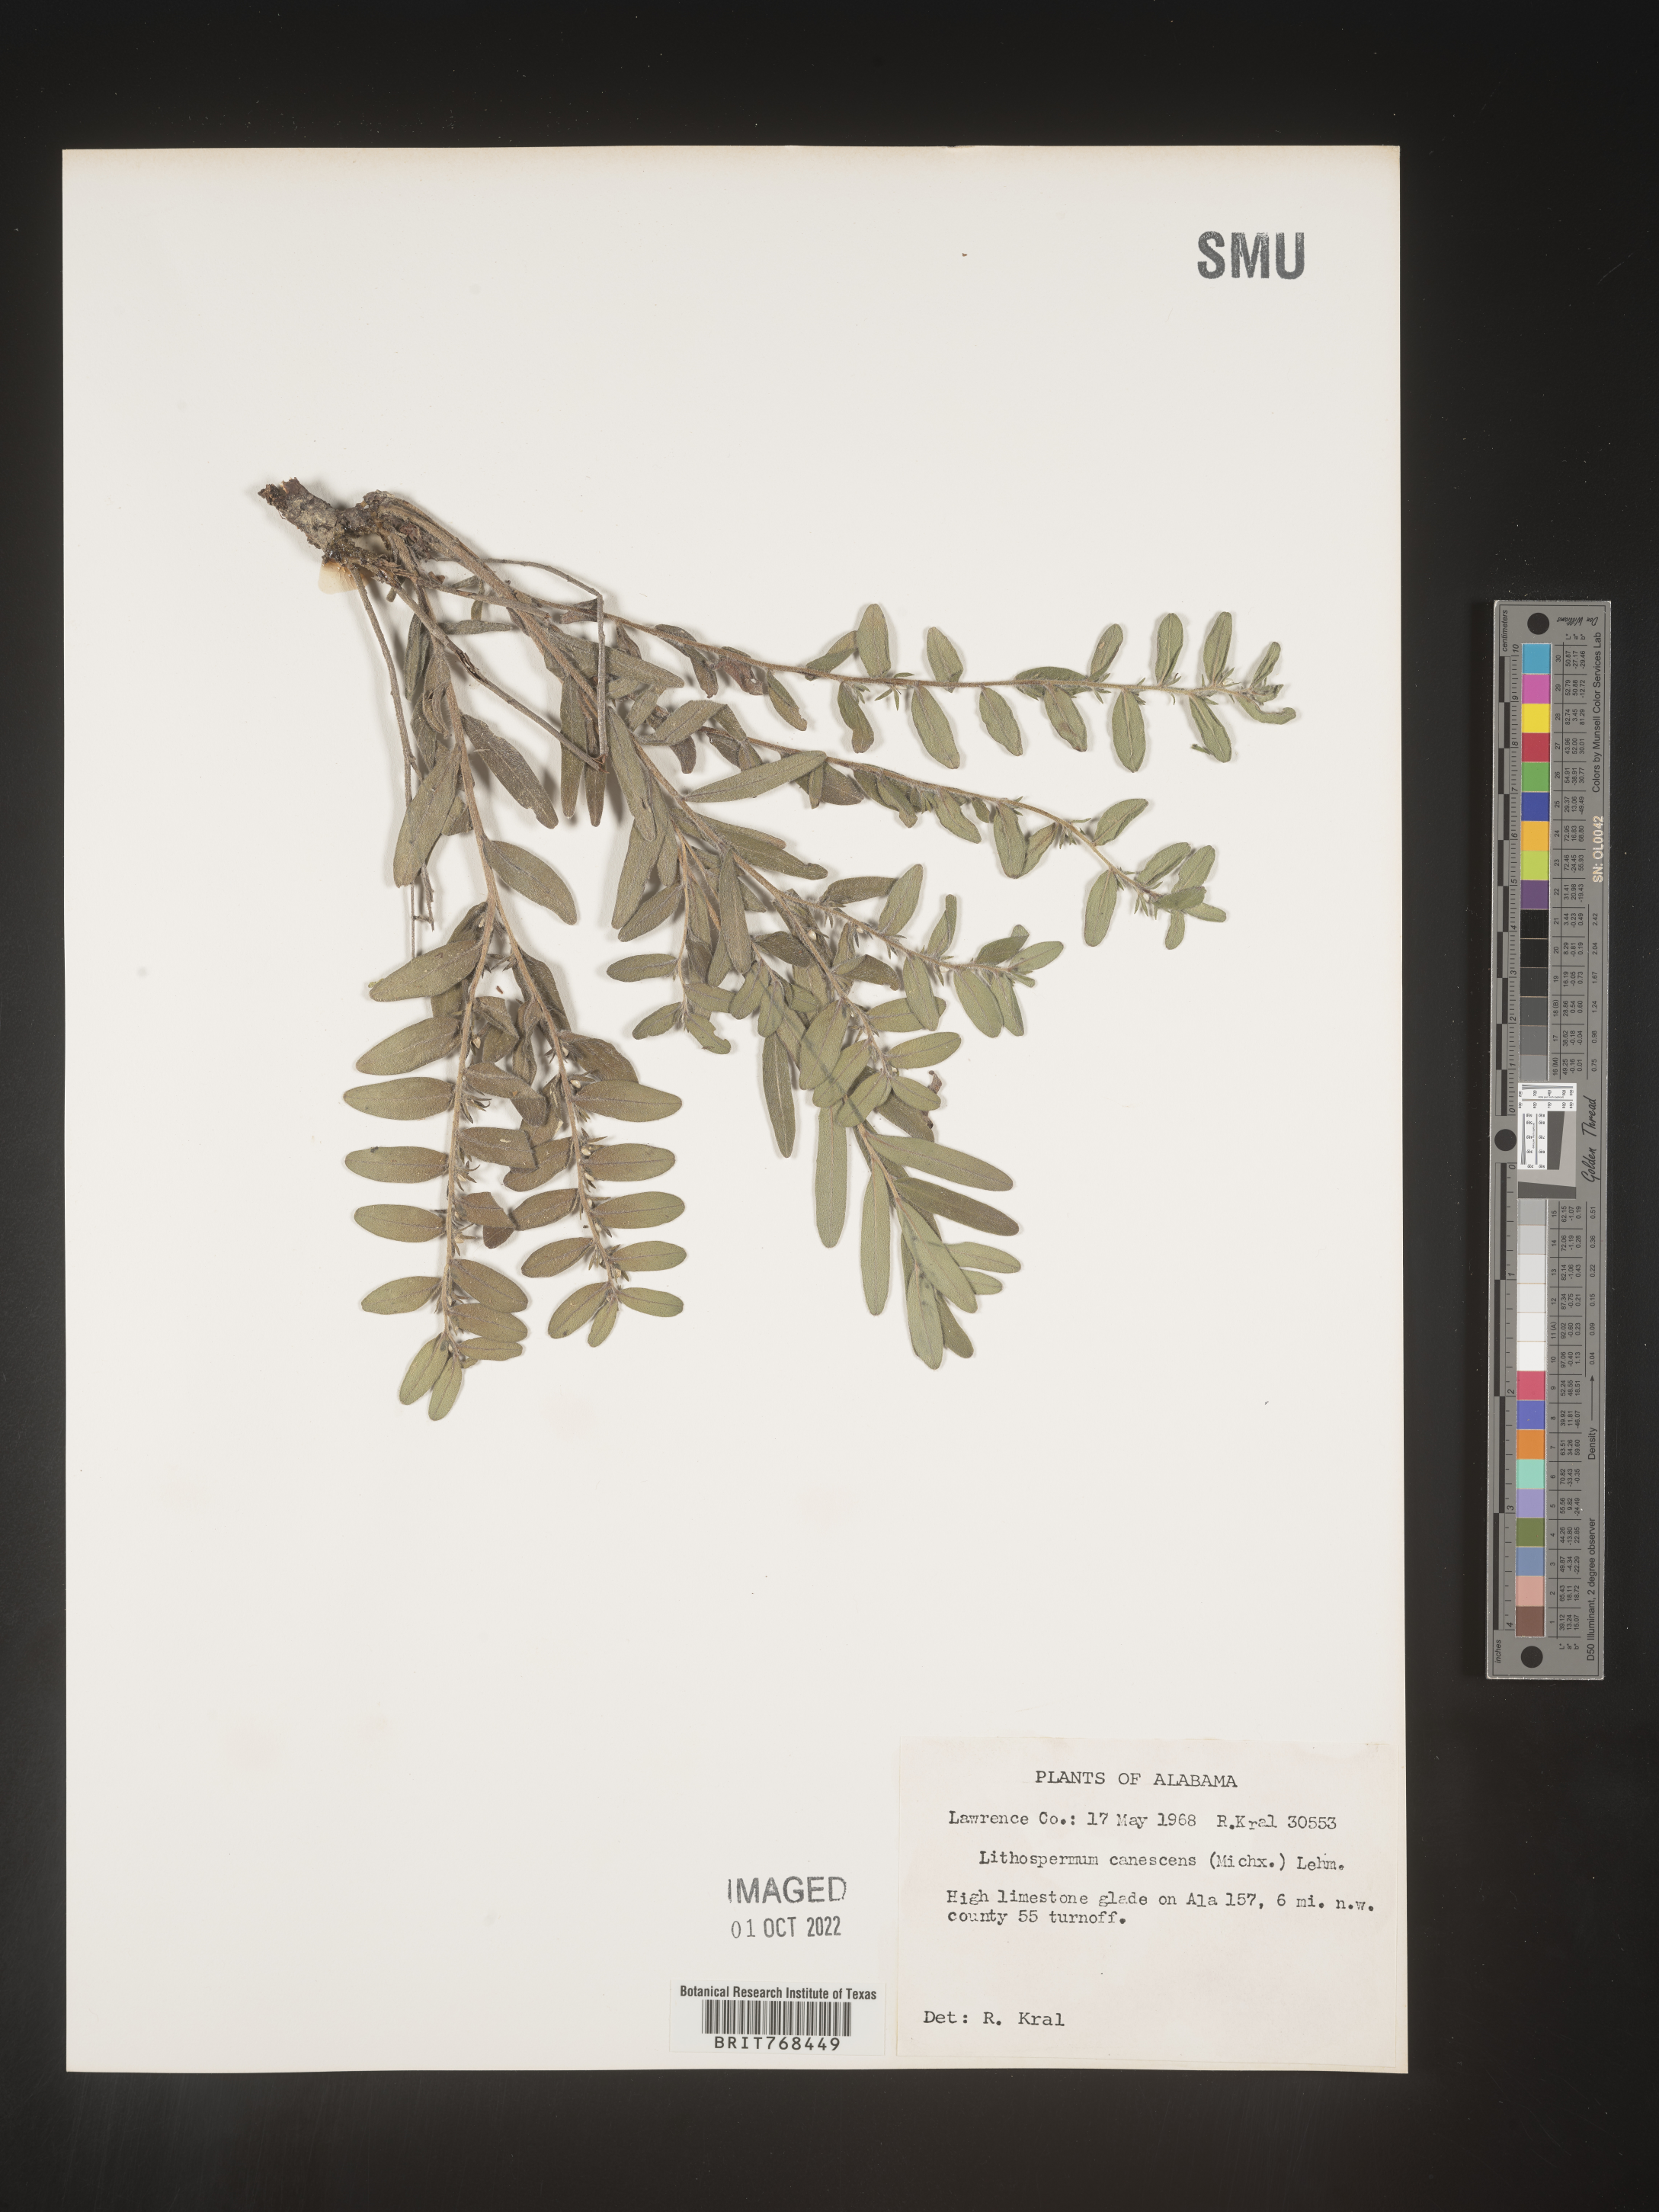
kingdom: Plantae
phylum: Tracheophyta
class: Magnoliopsida
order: Boraginales
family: Boraginaceae
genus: Lithospermum
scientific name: Lithospermum canescens
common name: Hoary puccoon
